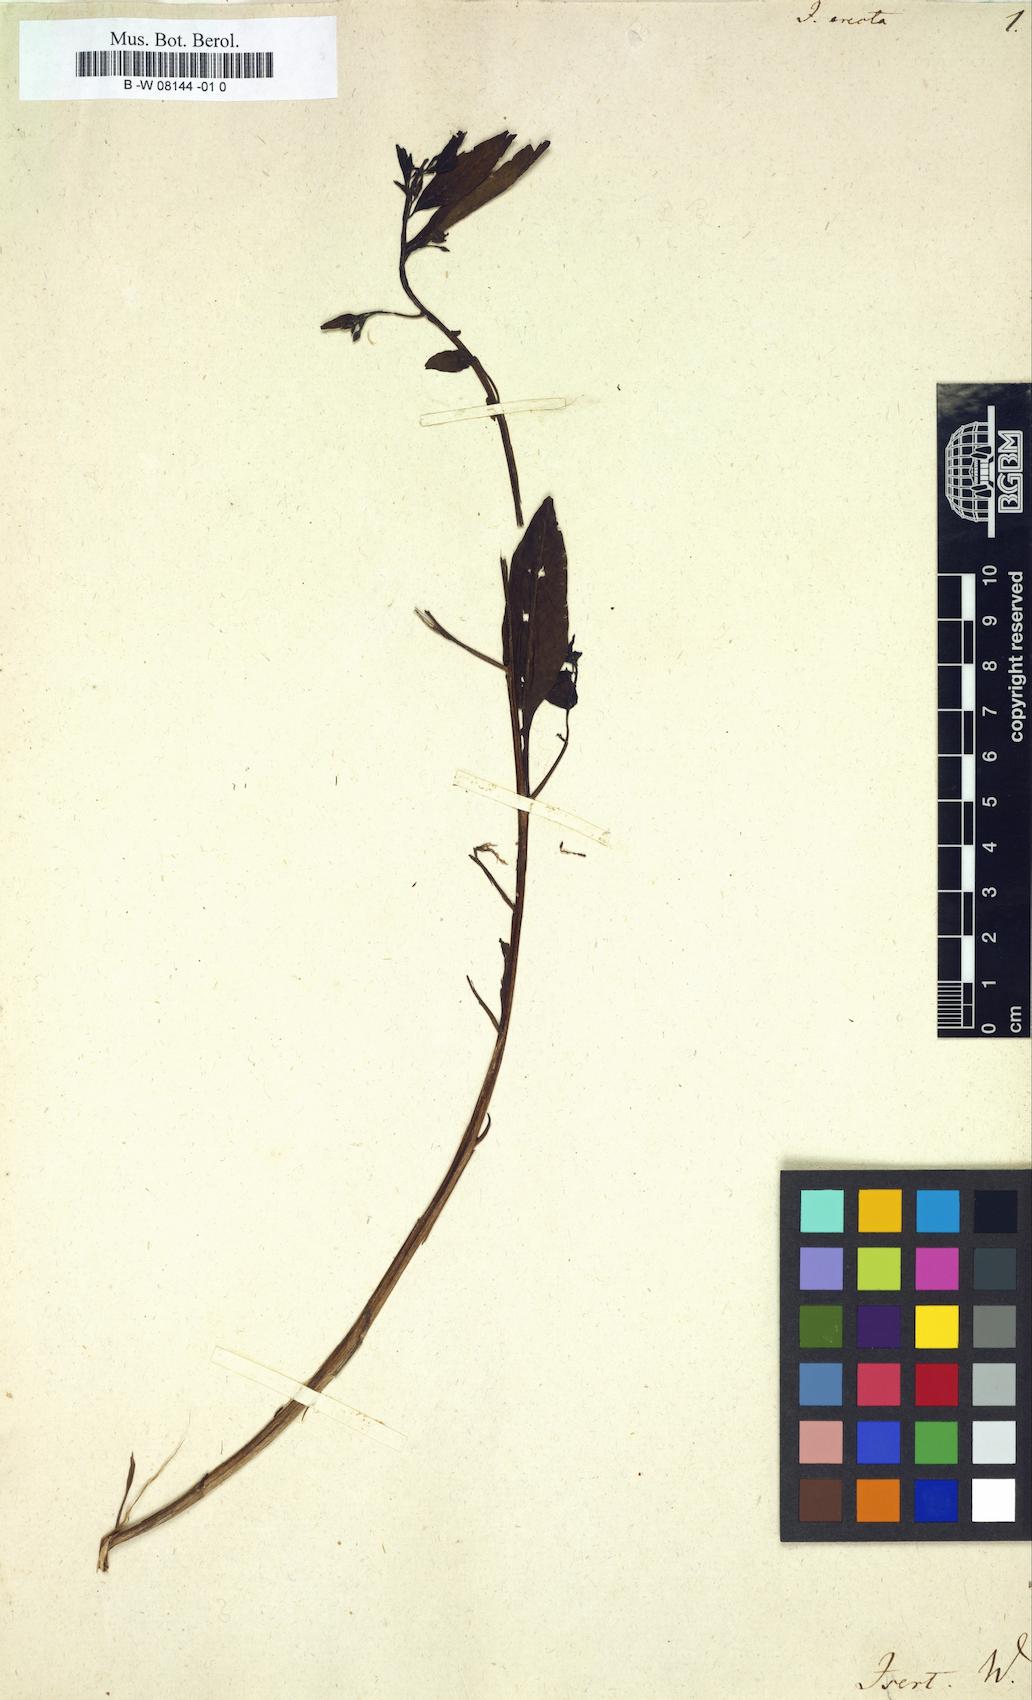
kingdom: Plantae
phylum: Tracheophyta
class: Magnoliopsida
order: Myrtales
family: Onagraceae
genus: Ludwigia
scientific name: Ludwigia
